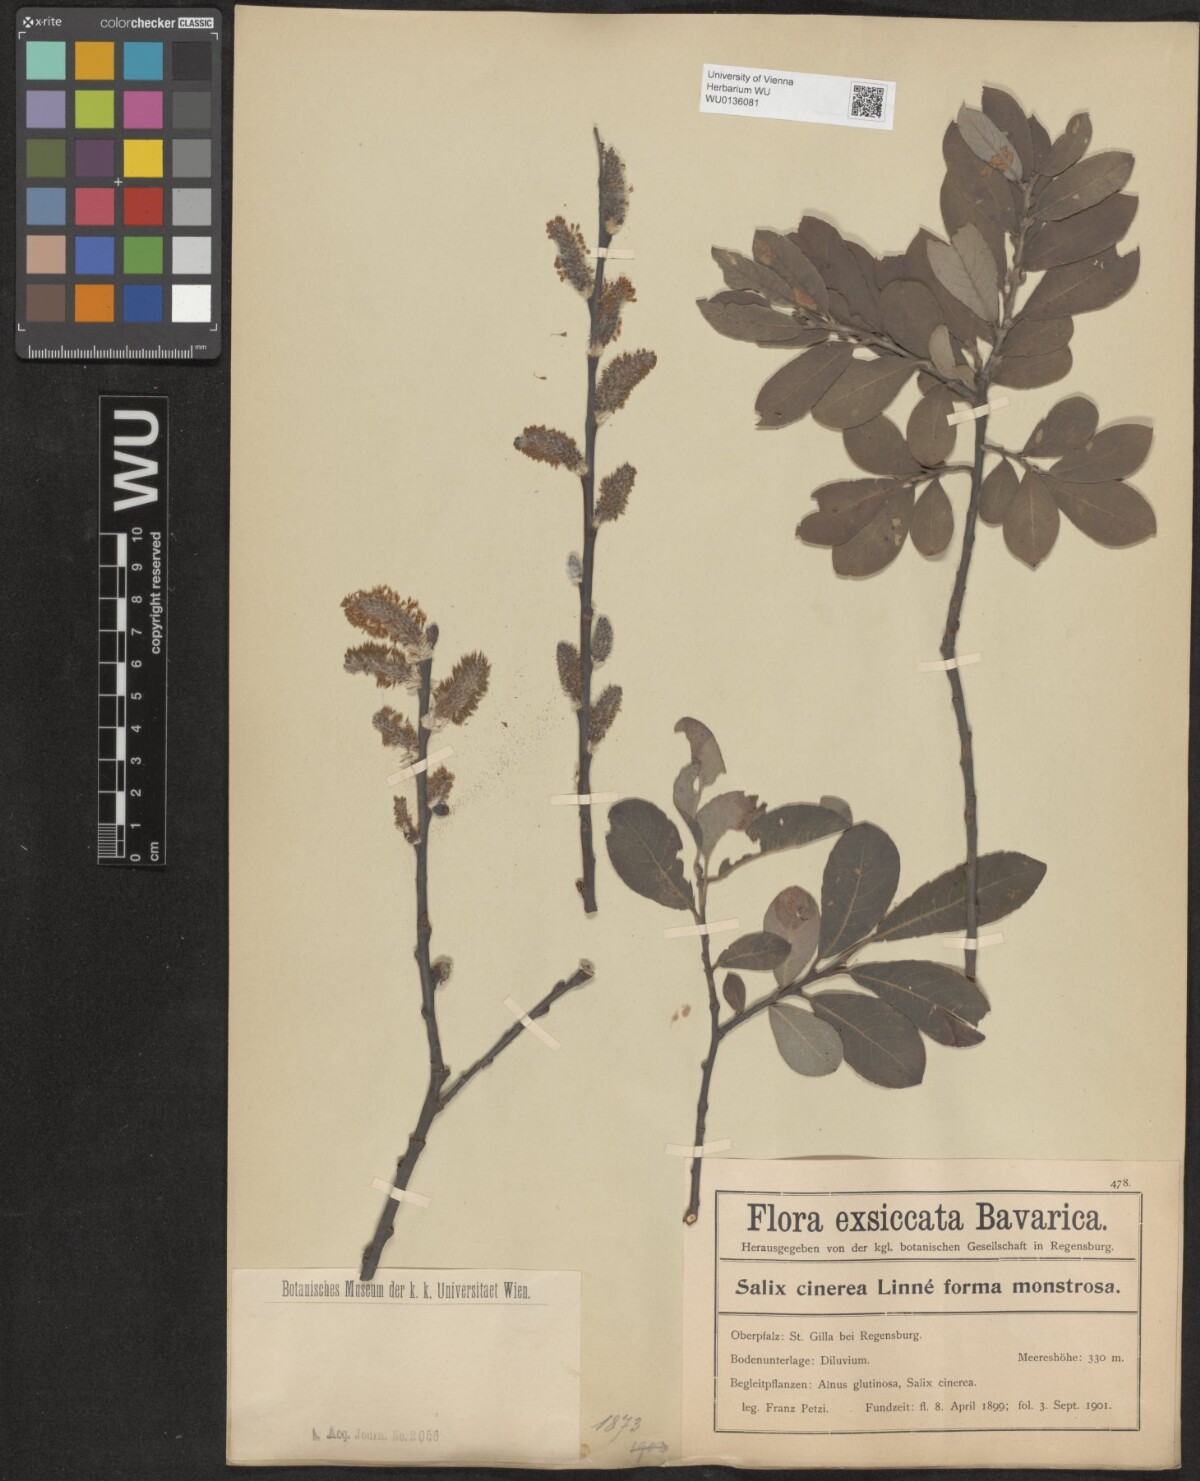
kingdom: Plantae
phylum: Tracheophyta
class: Magnoliopsida
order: Malpighiales
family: Salicaceae
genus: Salix
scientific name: Salix cinerea
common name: Common sallow
